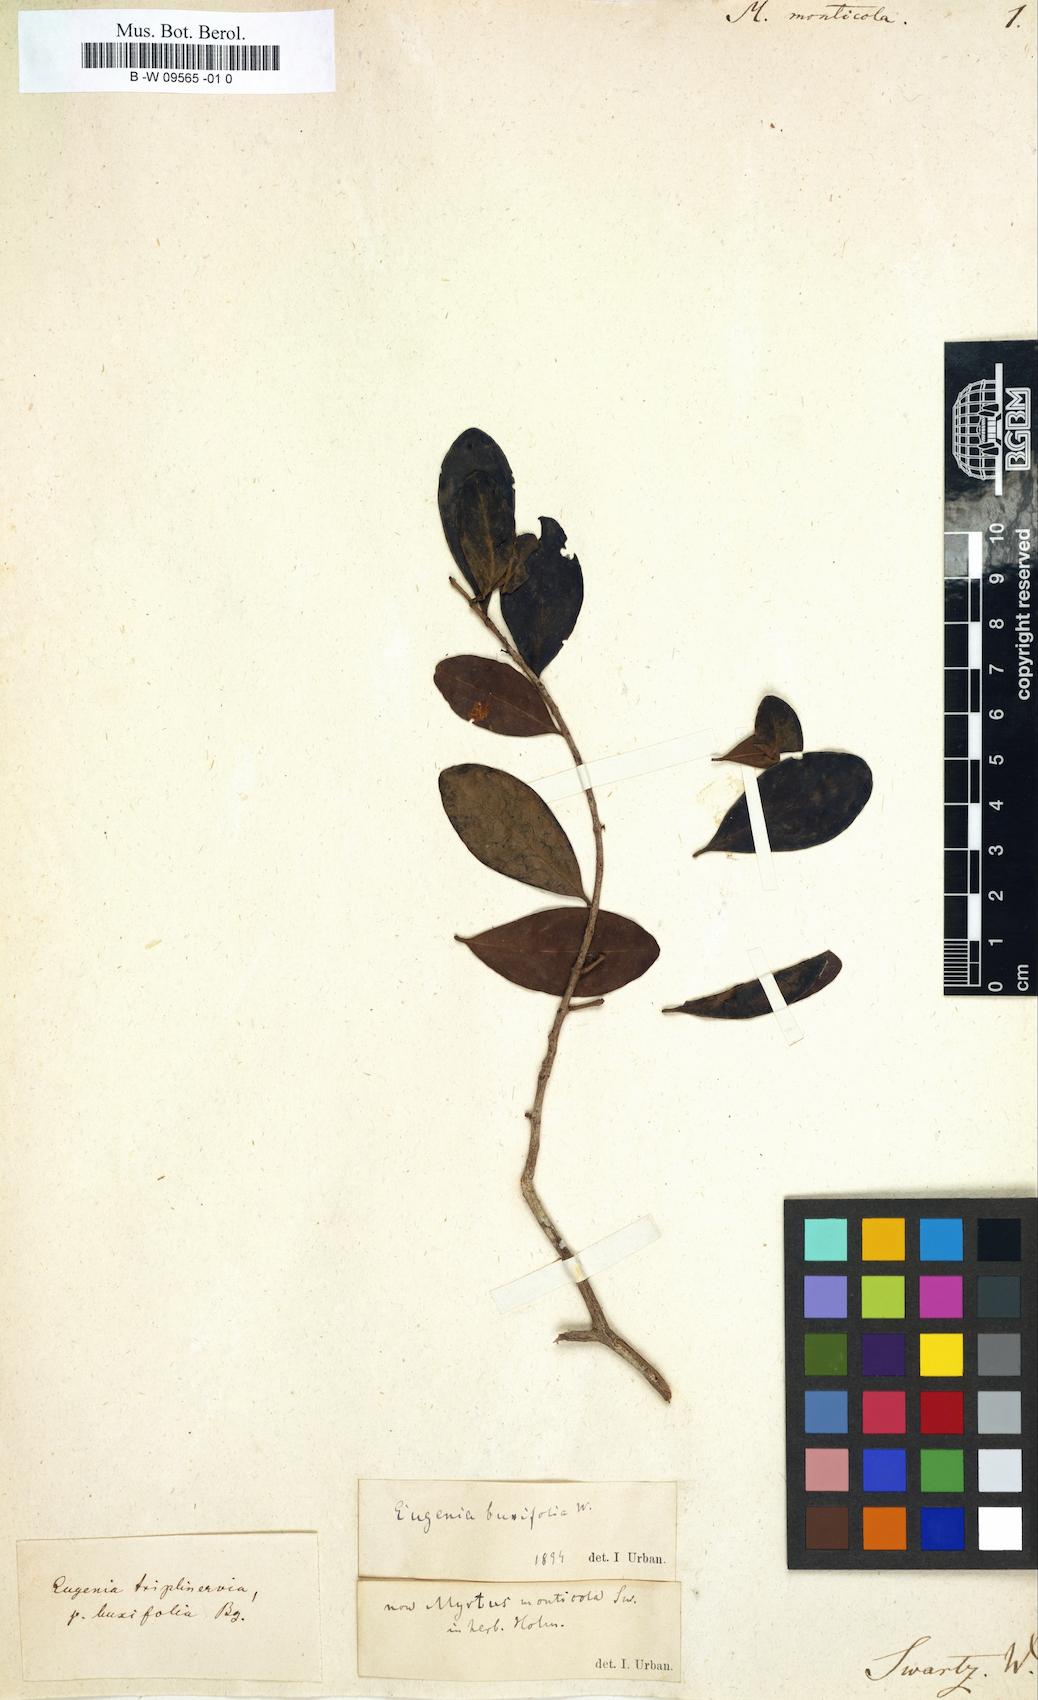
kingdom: Plantae
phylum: Tracheophyta
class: Magnoliopsida
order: Myrtales
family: Myrtaceae
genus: Myrtus
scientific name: Myrtus monticola
